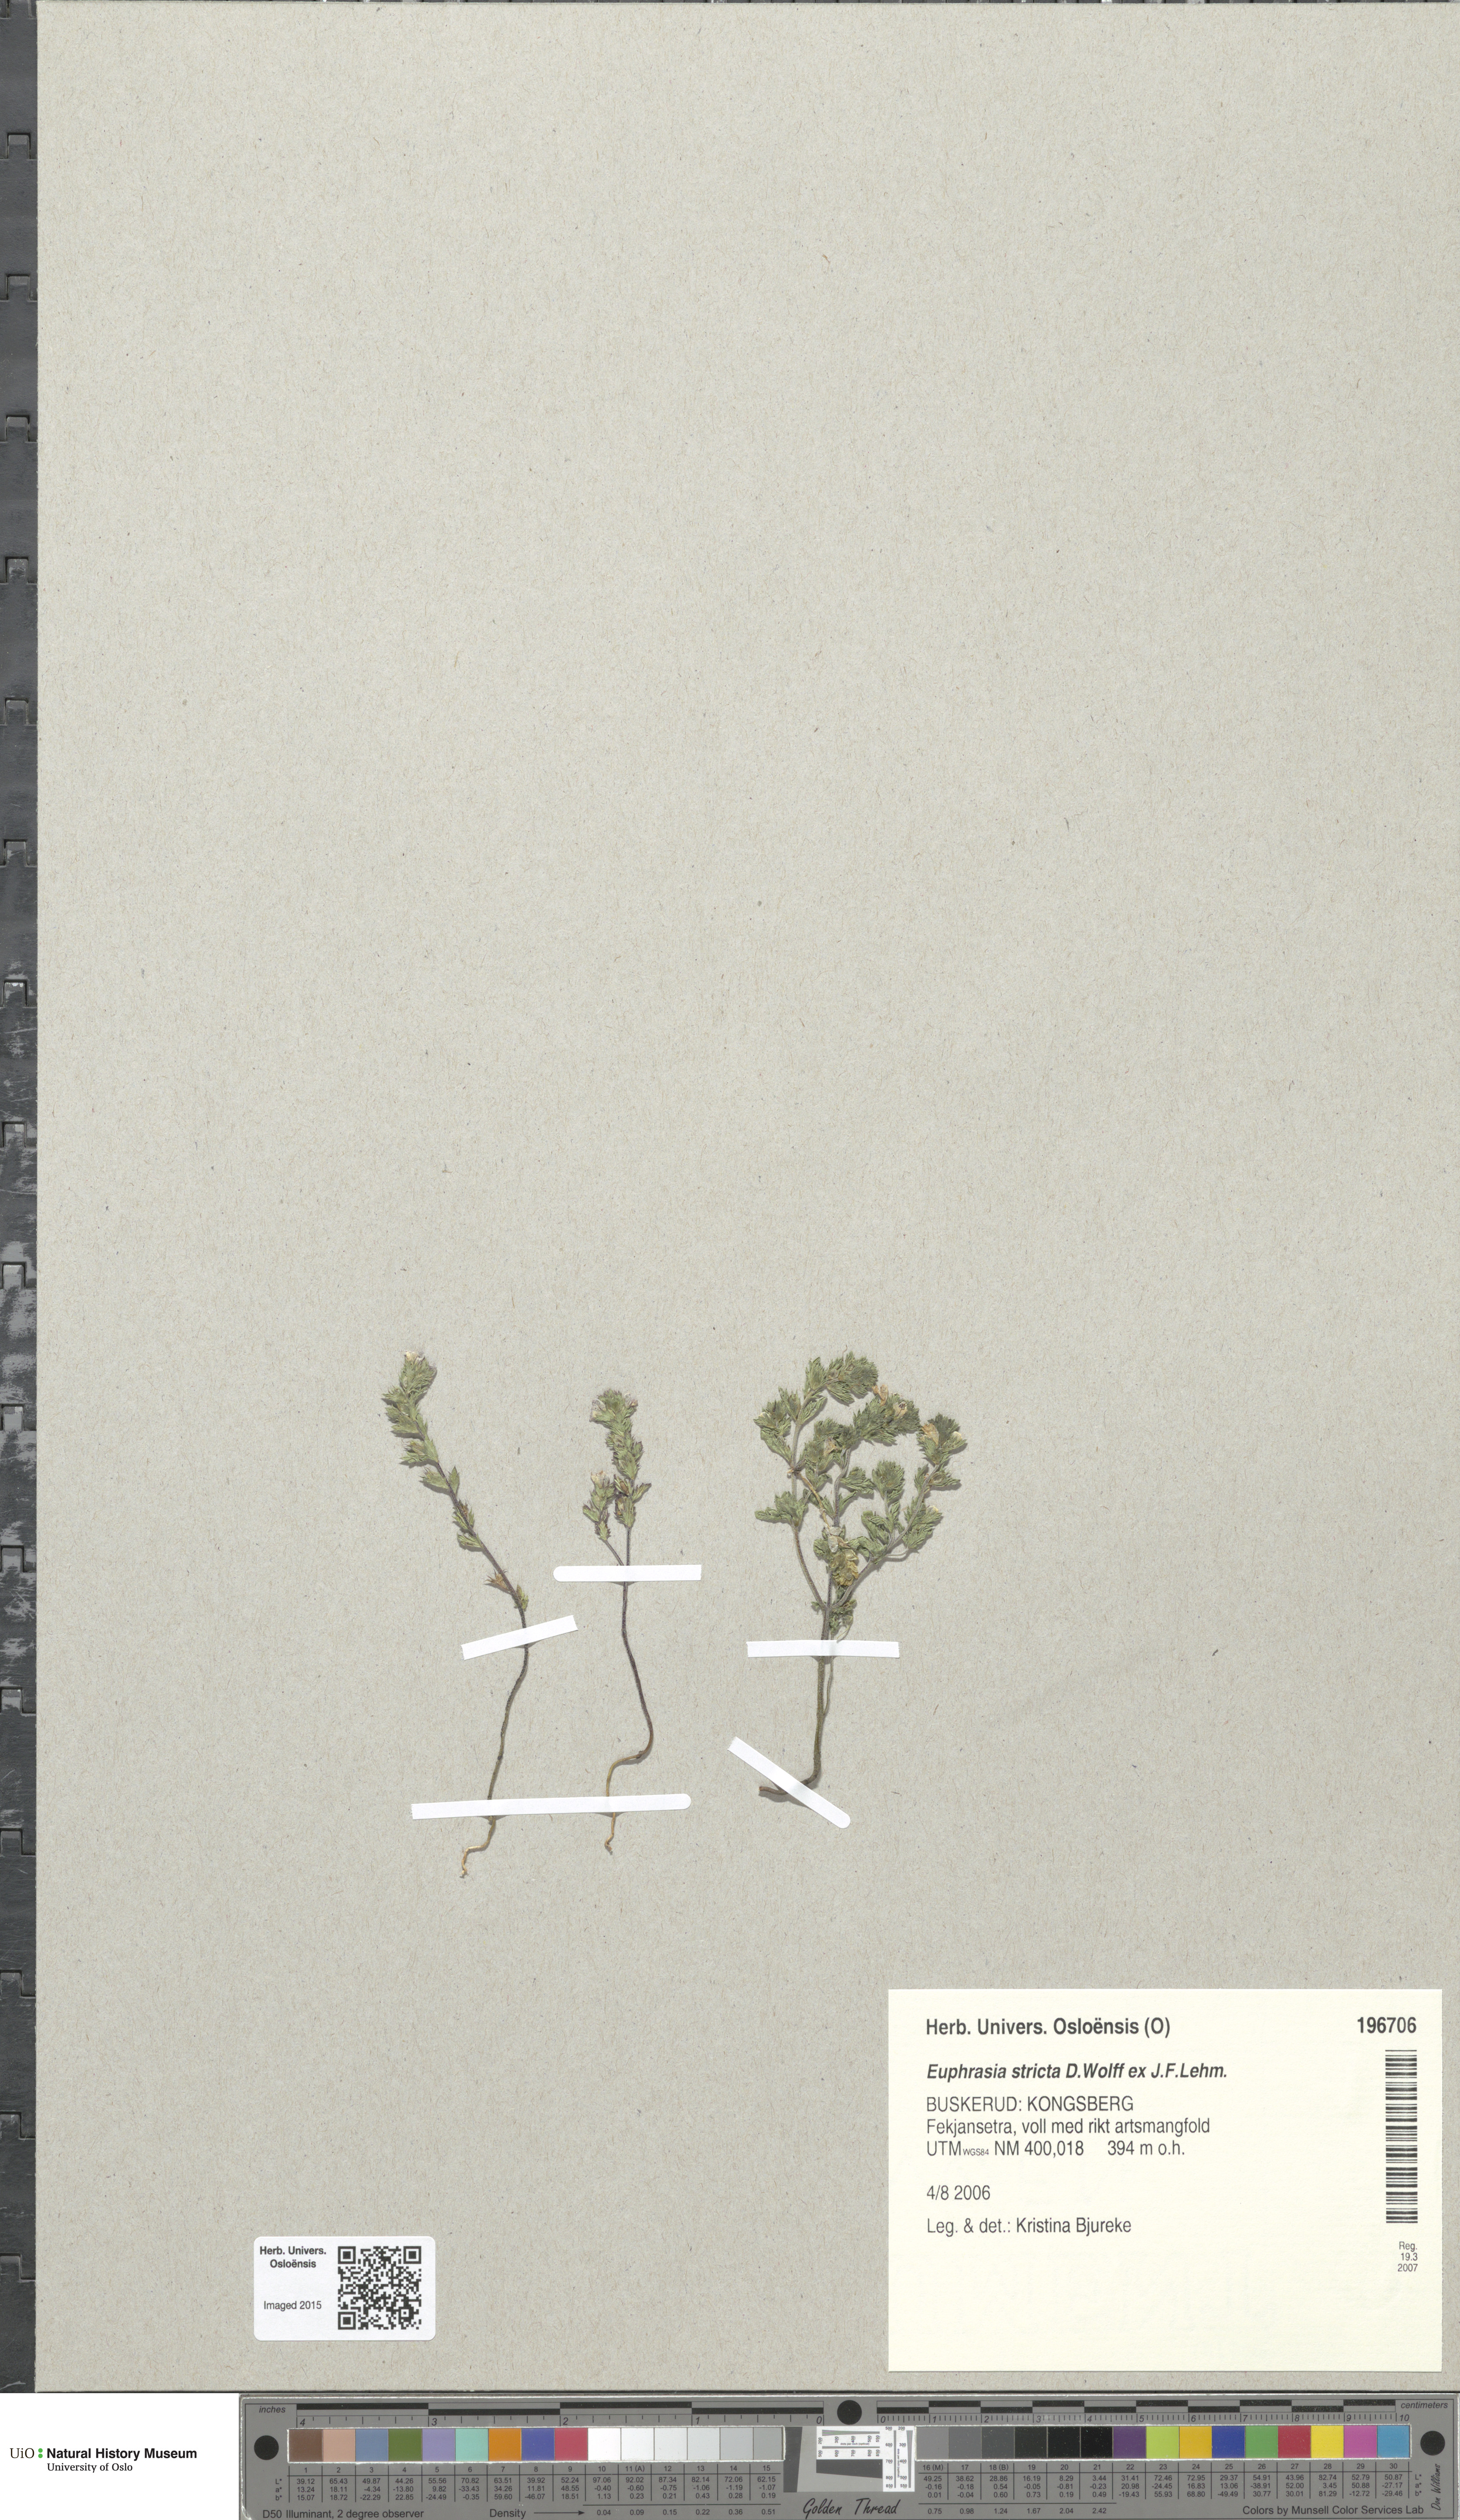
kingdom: Plantae
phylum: Tracheophyta
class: Magnoliopsida
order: Lamiales
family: Orobanchaceae
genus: Euphrasia
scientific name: Euphrasia stricta
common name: Drug eyebright
